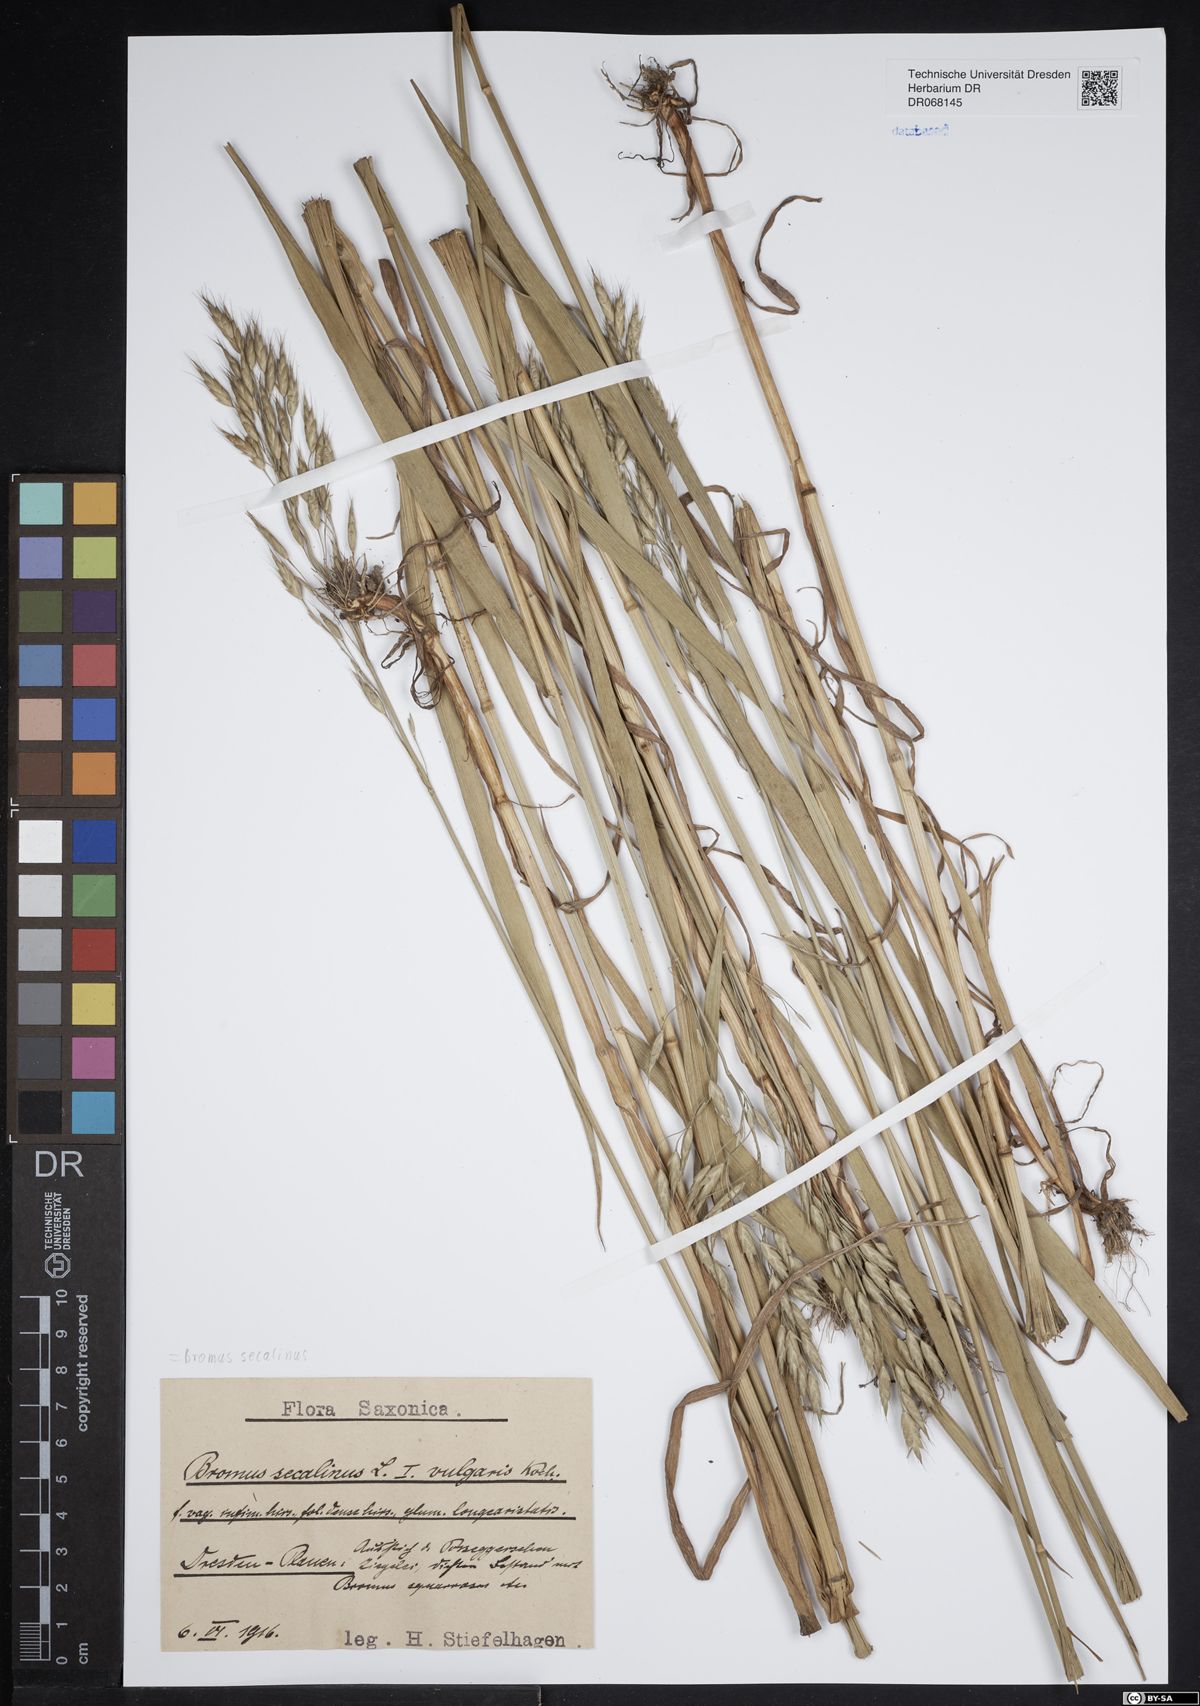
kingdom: Plantae
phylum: Tracheophyta
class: Liliopsida
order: Poales
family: Poaceae
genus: Bromus
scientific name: Bromus secalinus
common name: Rye brome
